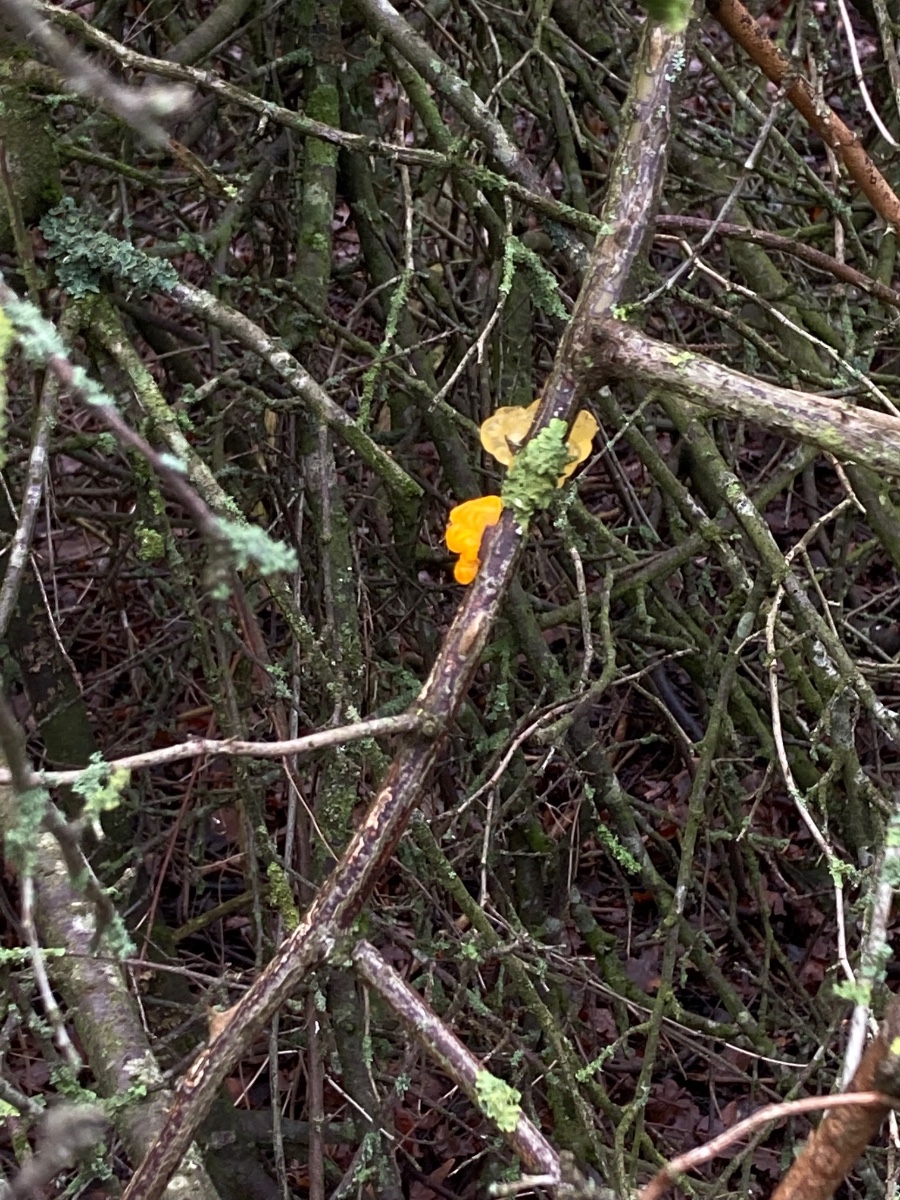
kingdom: Fungi
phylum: Basidiomycota
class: Tremellomycetes
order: Tremellales
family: Tremellaceae
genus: Tremella
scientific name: Tremella mesenterica
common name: gul bævresvamp
